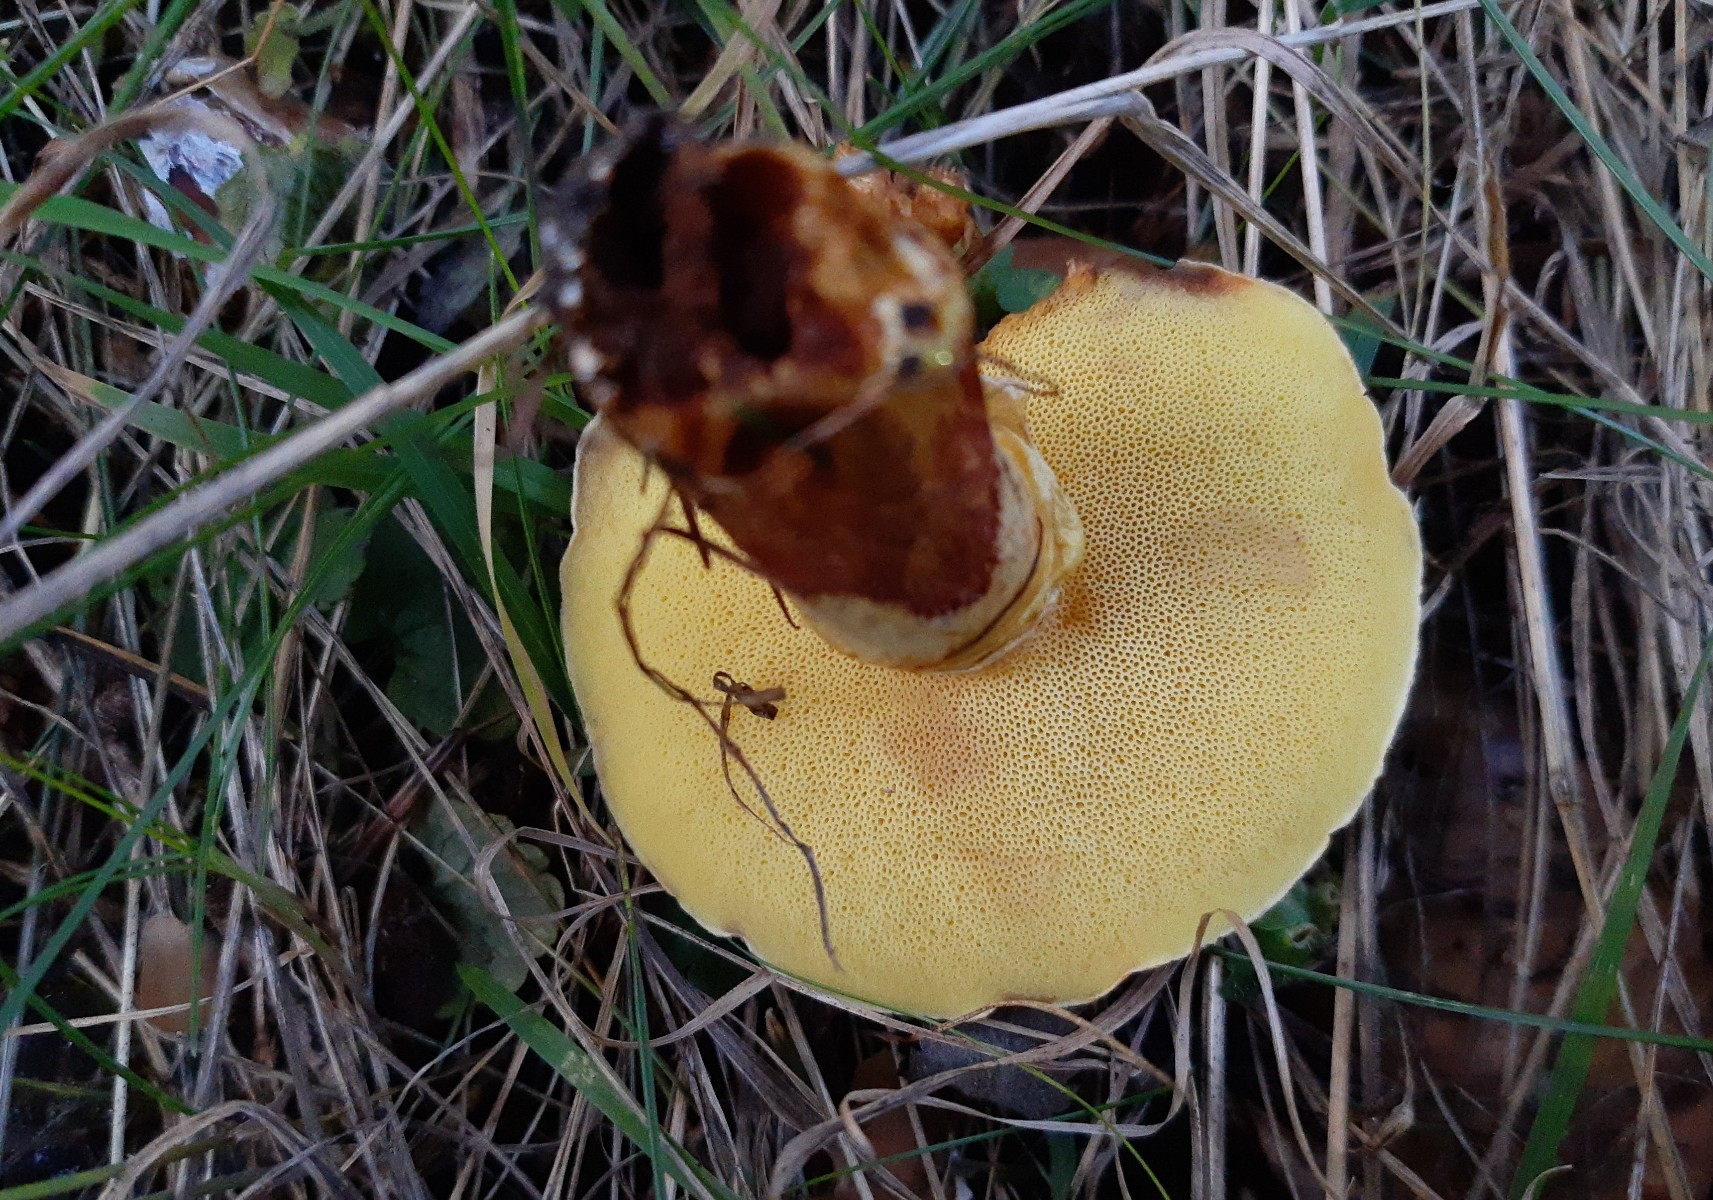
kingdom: Fungi
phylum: Basidiomycota
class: Agaricomycetes
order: Boletales
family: Suillaceae
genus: Suillus
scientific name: Suillus grevillei
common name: lærke-slimrørhat
